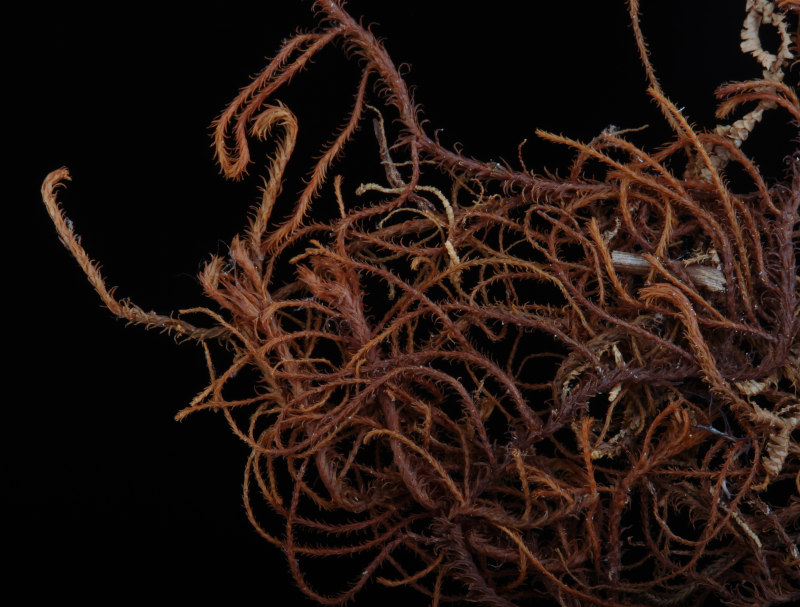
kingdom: Plantae
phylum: Marchantiophyta
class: Jungermanniopsida
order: Jungermanniales
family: Herbertaceae
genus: Herbertus
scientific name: Herbertus dicranus
